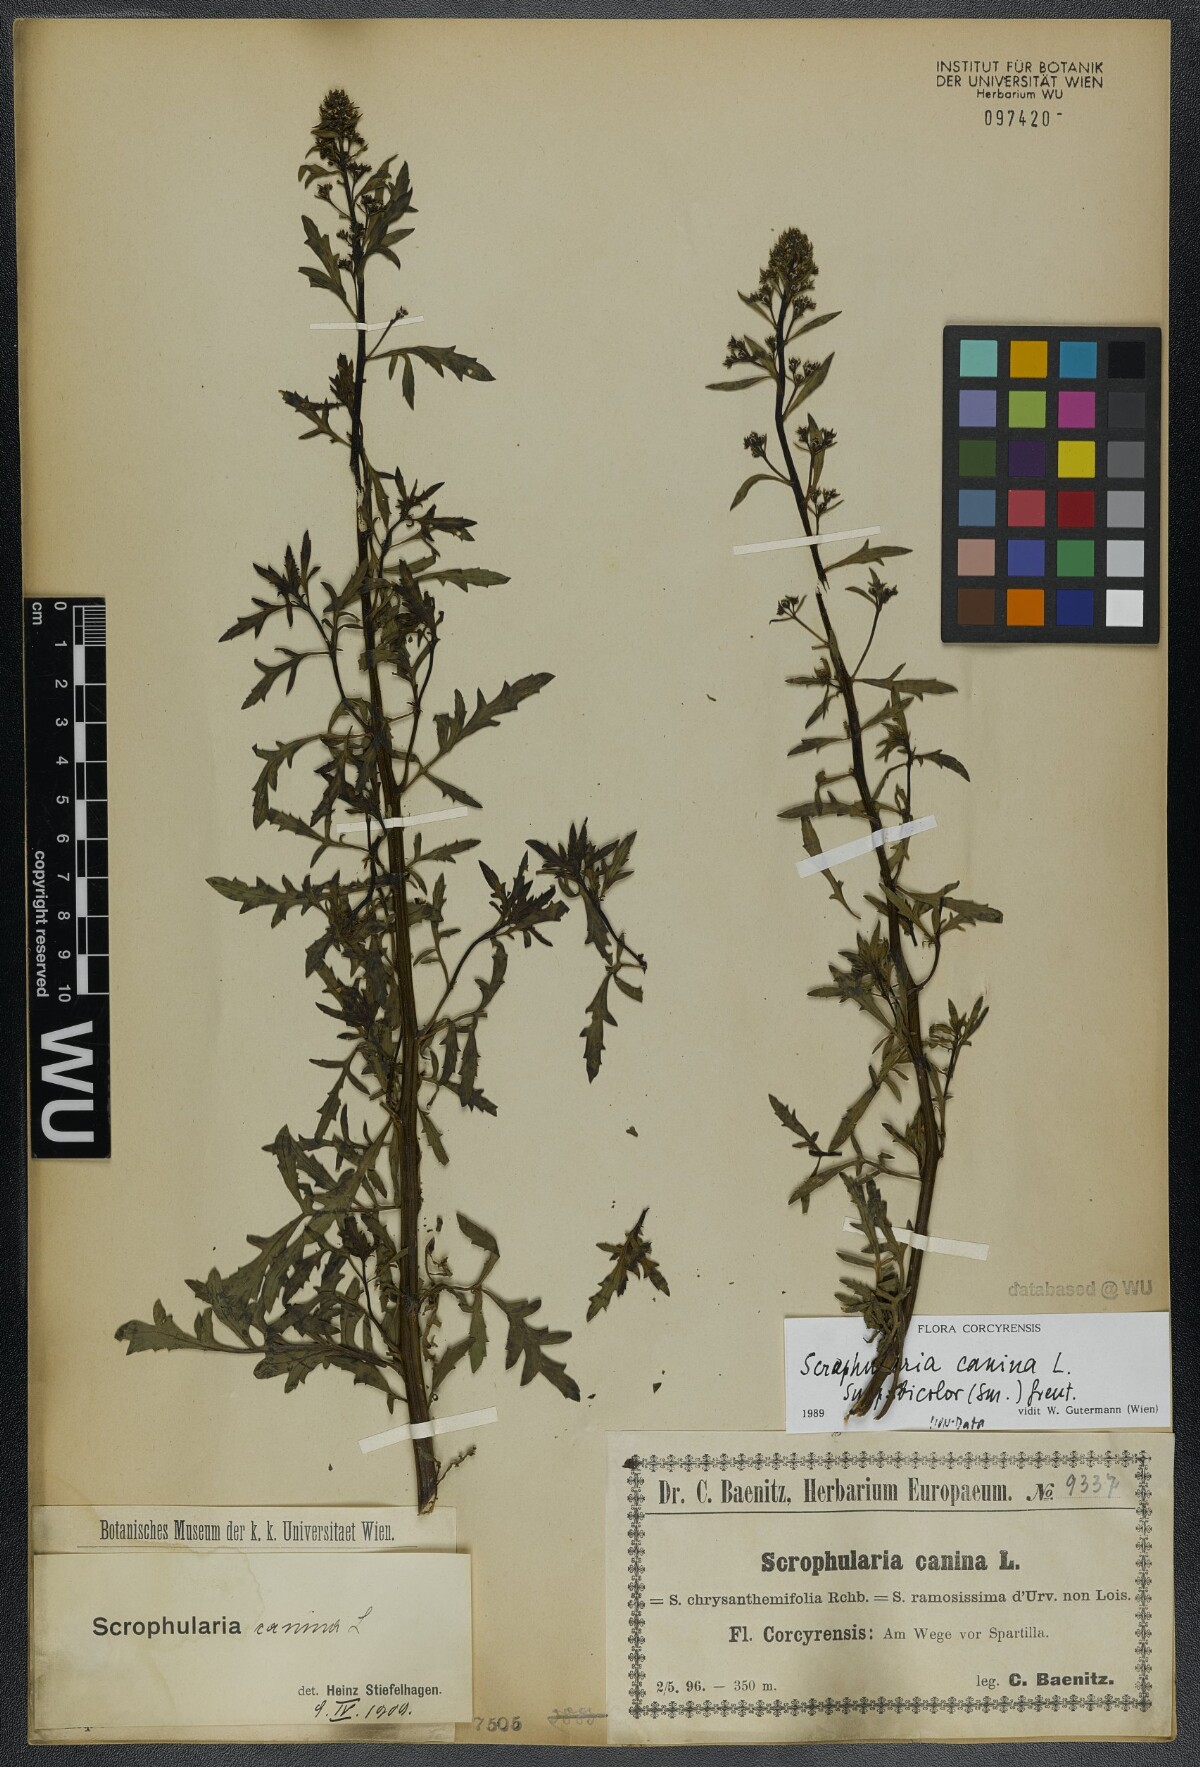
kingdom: Plantae
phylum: Tracheophyta
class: Magnoliopsida
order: Lamiales
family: Scrophulariaceae
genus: Scrophularia
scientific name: Scrophularia canina
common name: French figwort
